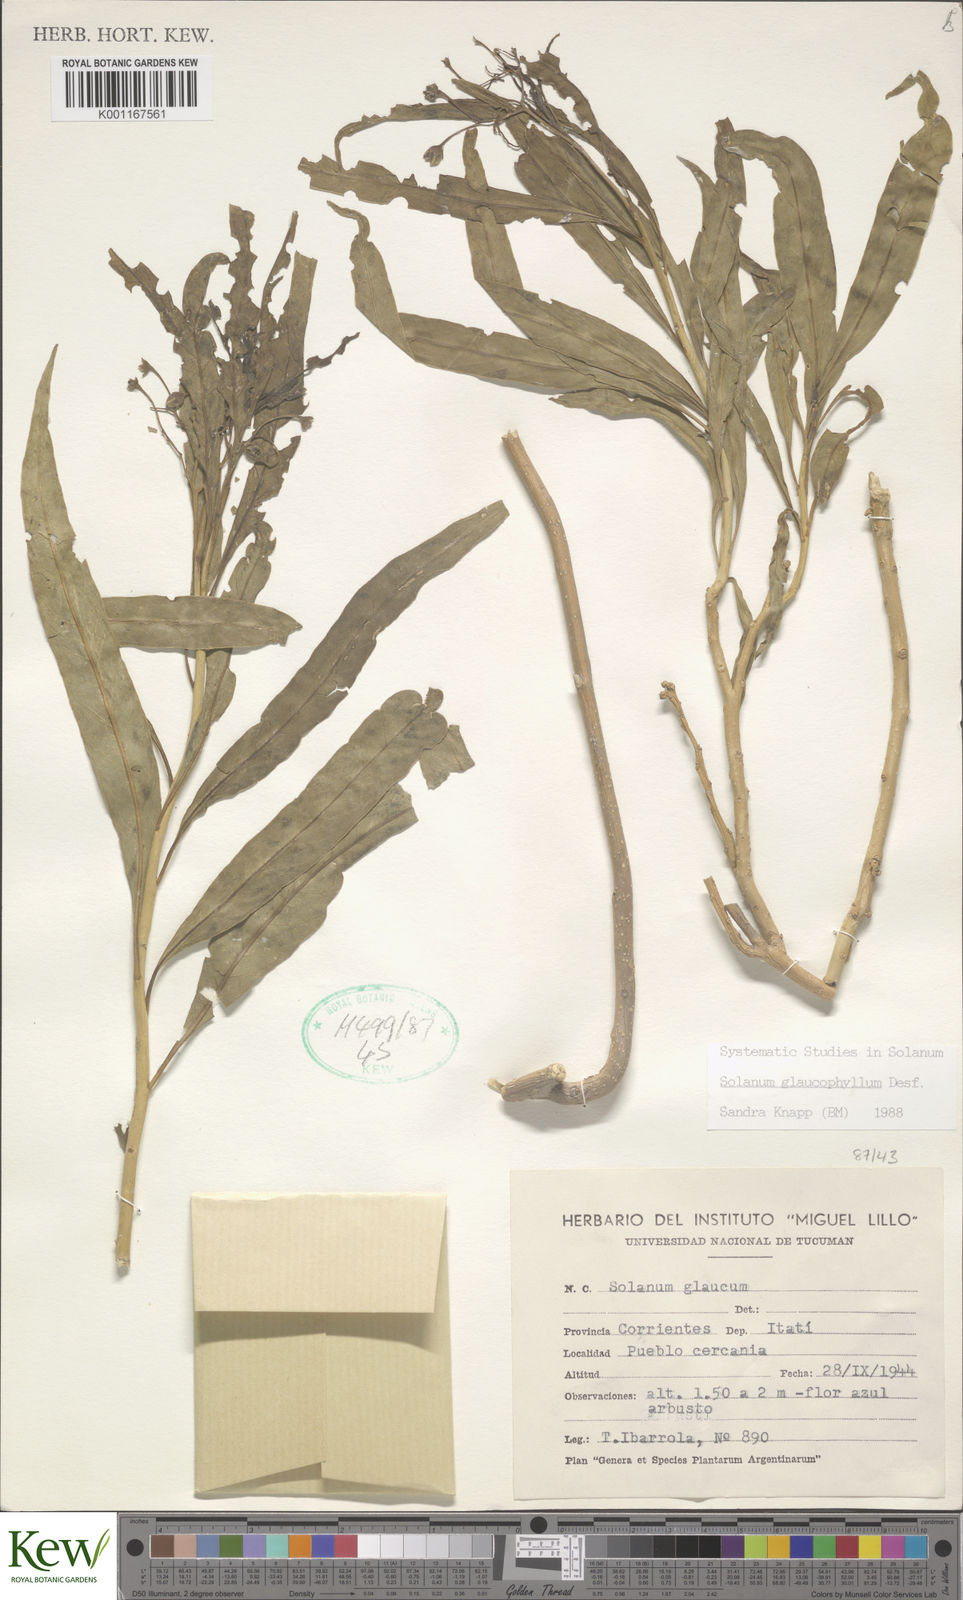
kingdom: Plantae
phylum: Tracheophyta
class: Magnoliopsida
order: Solanales
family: Solanaceae
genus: Solanum
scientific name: Solanum glaucophyllum
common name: Waxyleaf nightshade
